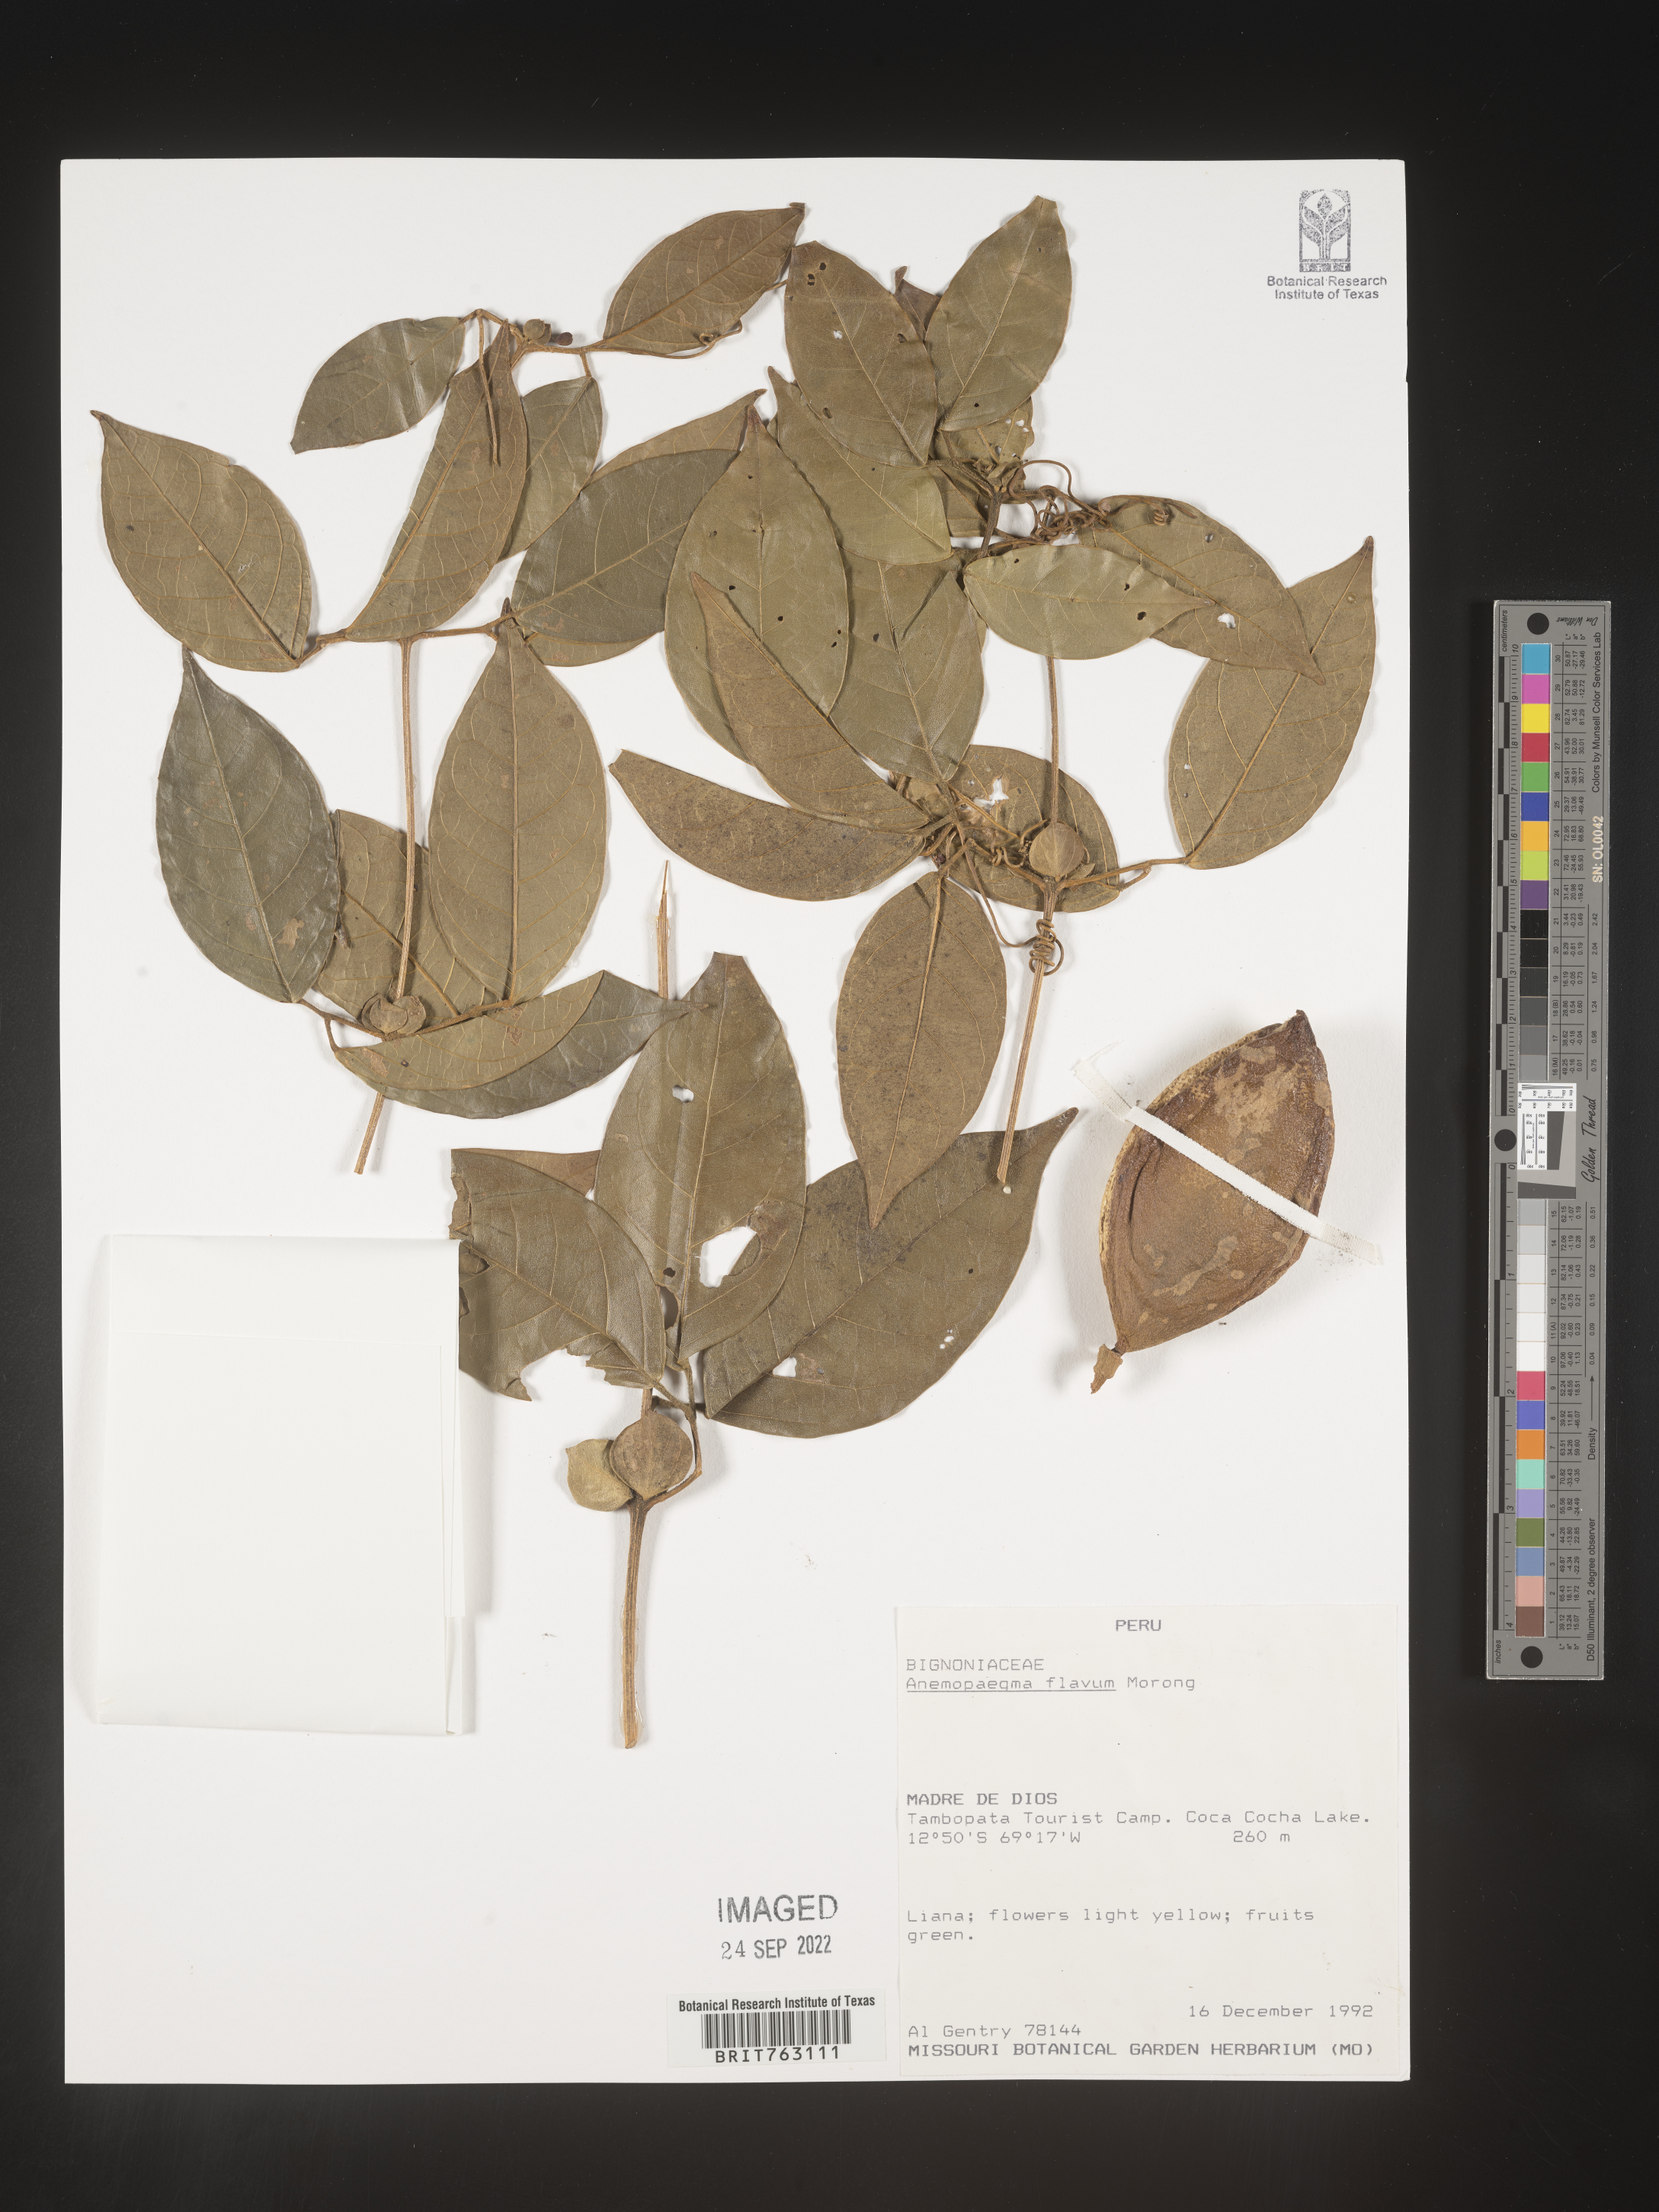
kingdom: Plantae
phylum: Tracheophyta
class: Magnoliopsida
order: Lamiales
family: Bignoniaceae
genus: Anemopaegma
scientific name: Anemopaegma
